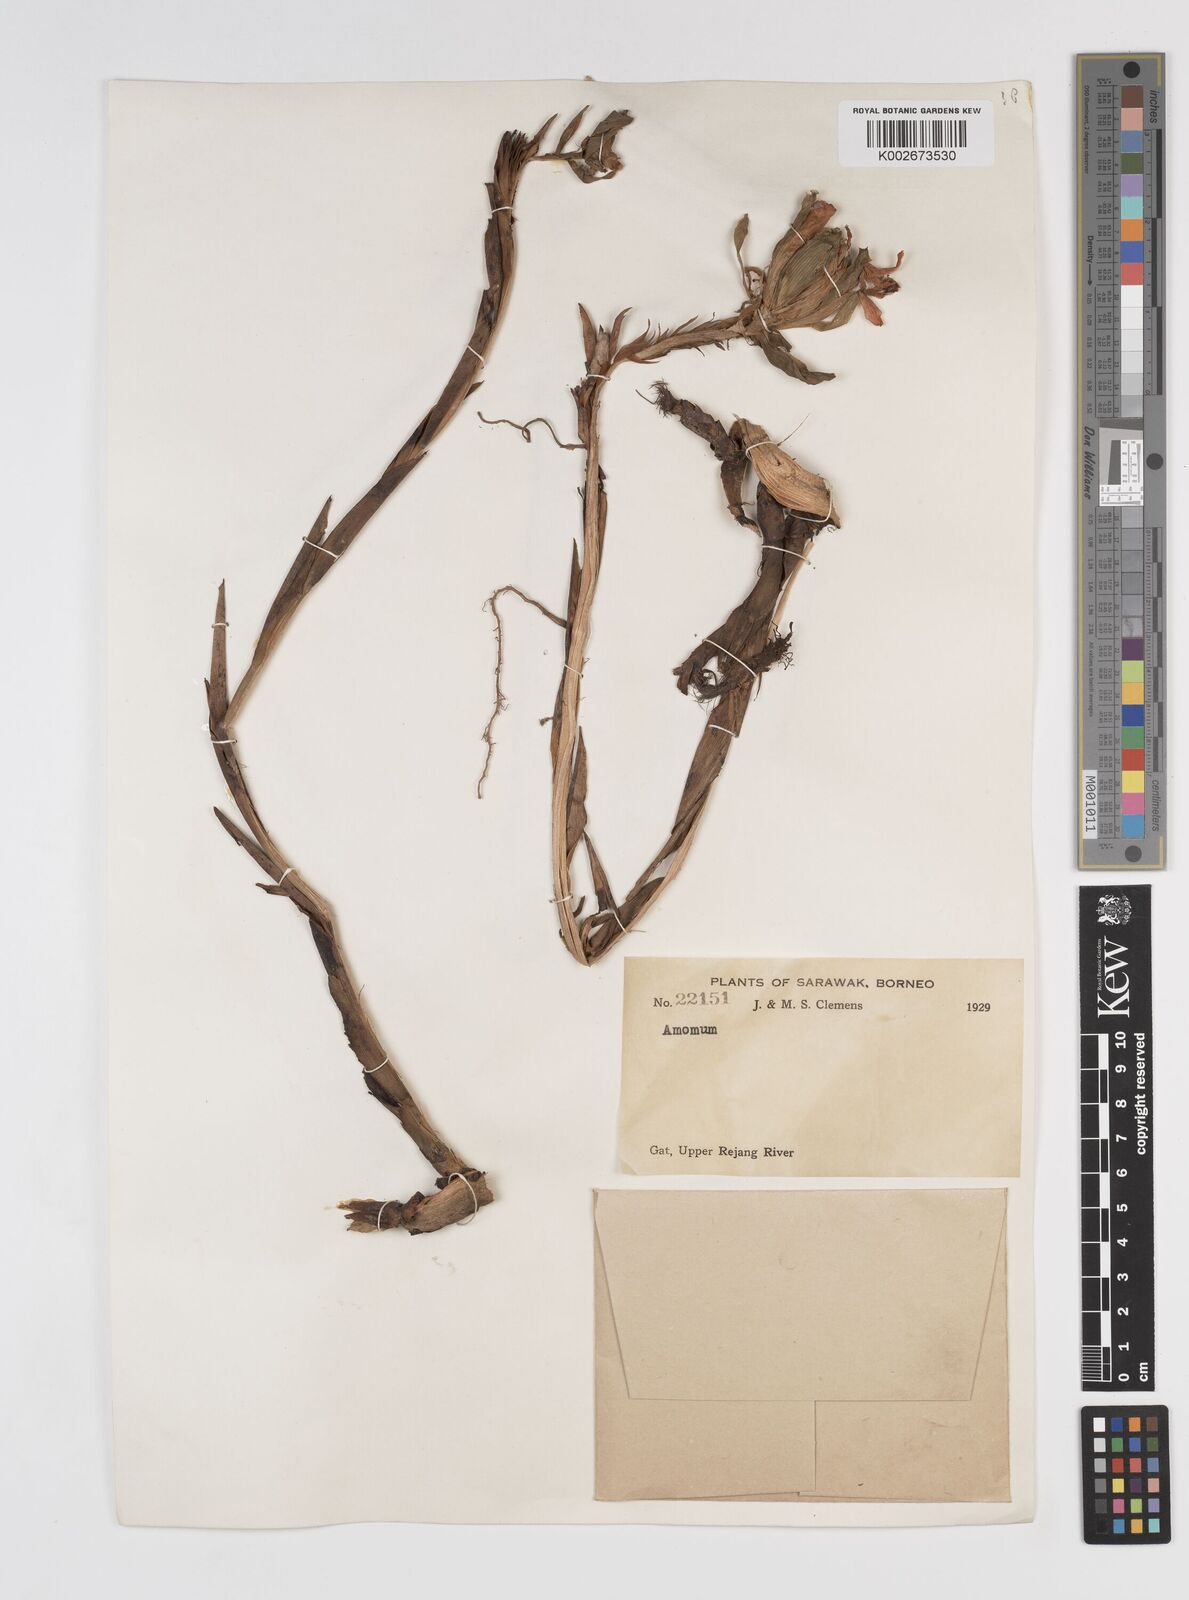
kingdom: Plantae
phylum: Tracheophyta
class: Liliopsida
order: Zingiberales
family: Zingiberaceae
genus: Amomum
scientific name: Amomum
